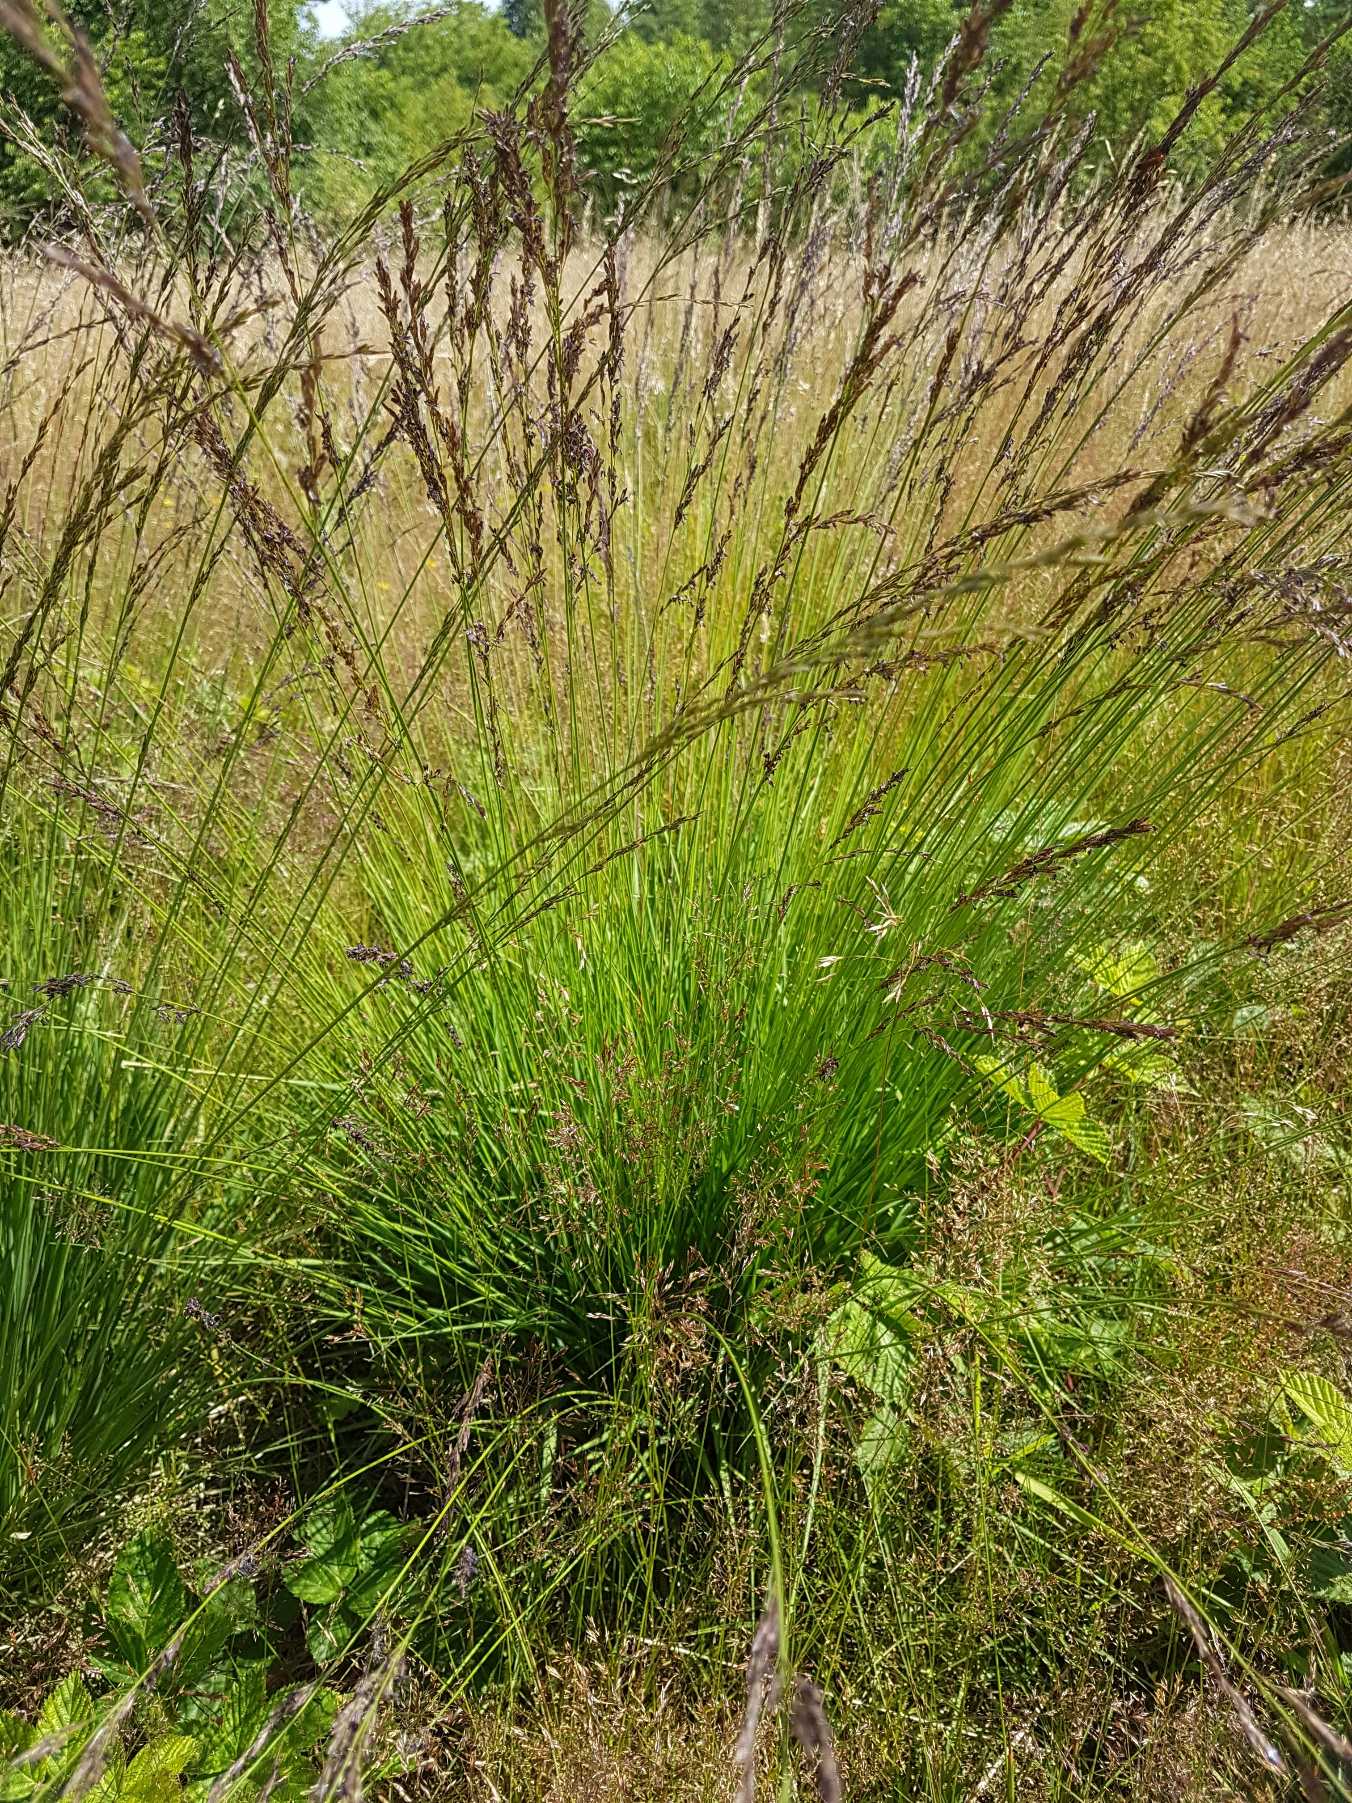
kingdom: Plantae
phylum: Tracheophyta
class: Liliopsida
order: Poales
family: Poaceae
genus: Molinia
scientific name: Molinia caerulea
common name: Blåtop
